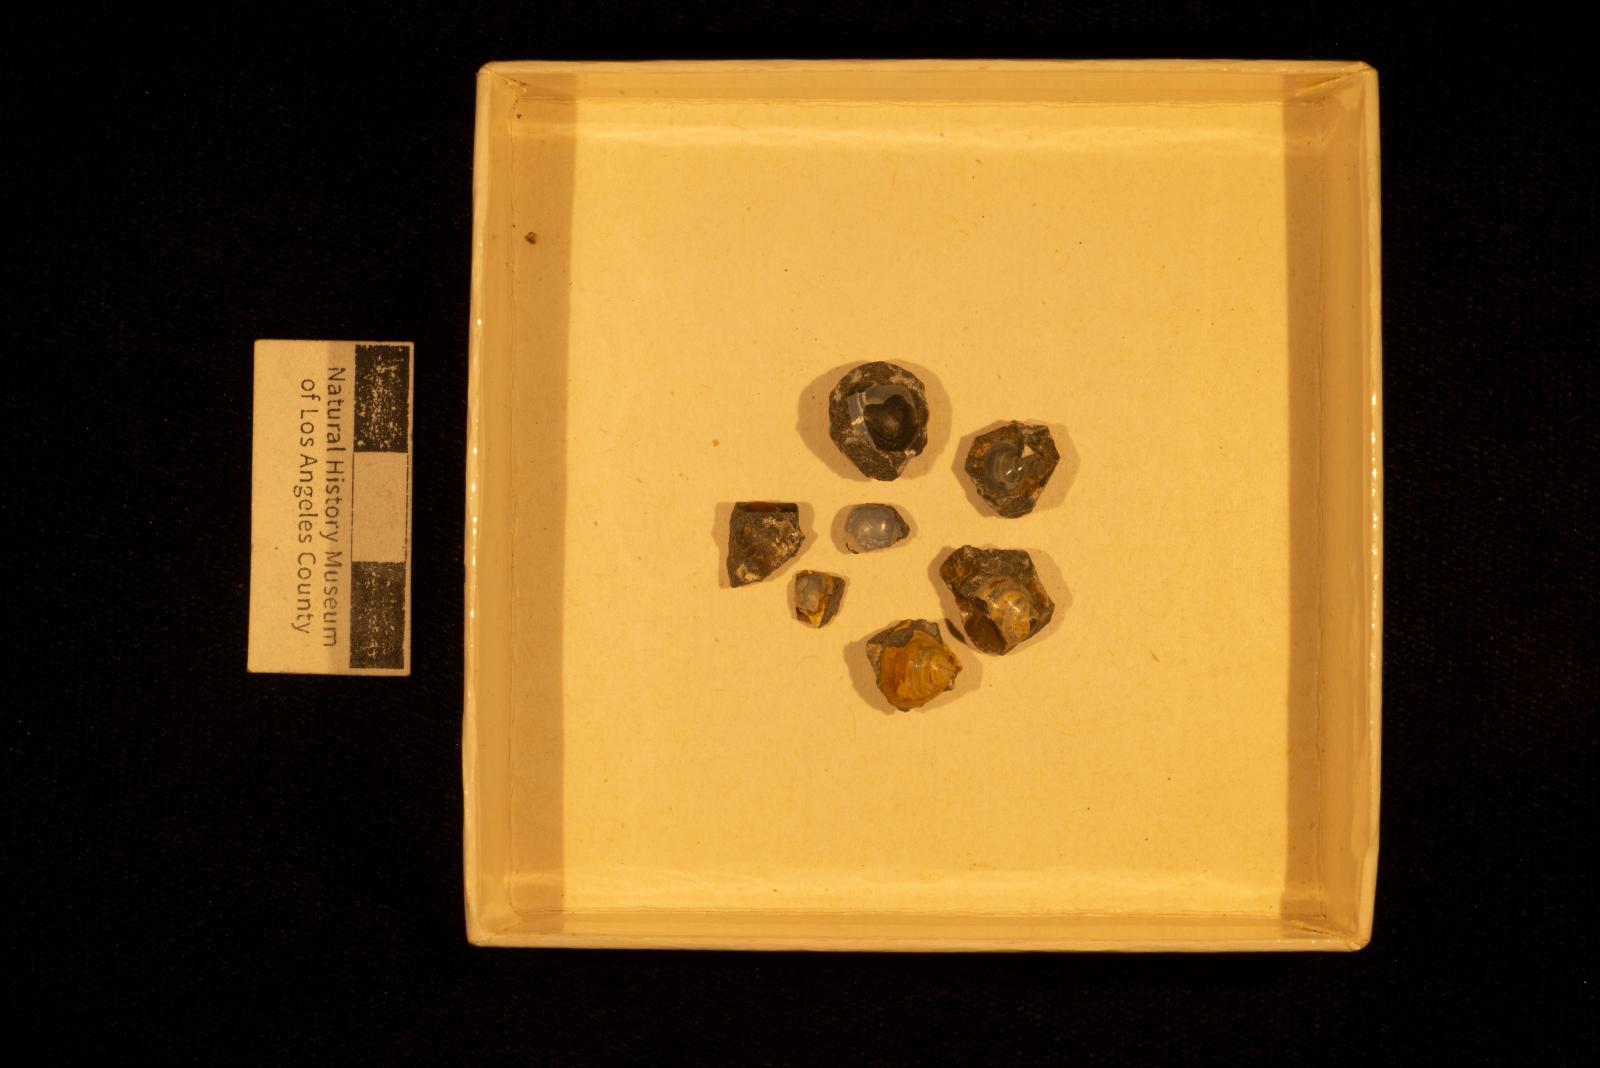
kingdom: Animalia
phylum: Mollusca
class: Bivalvia
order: Venerida
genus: Rhectomyax
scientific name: Rhectomyax
